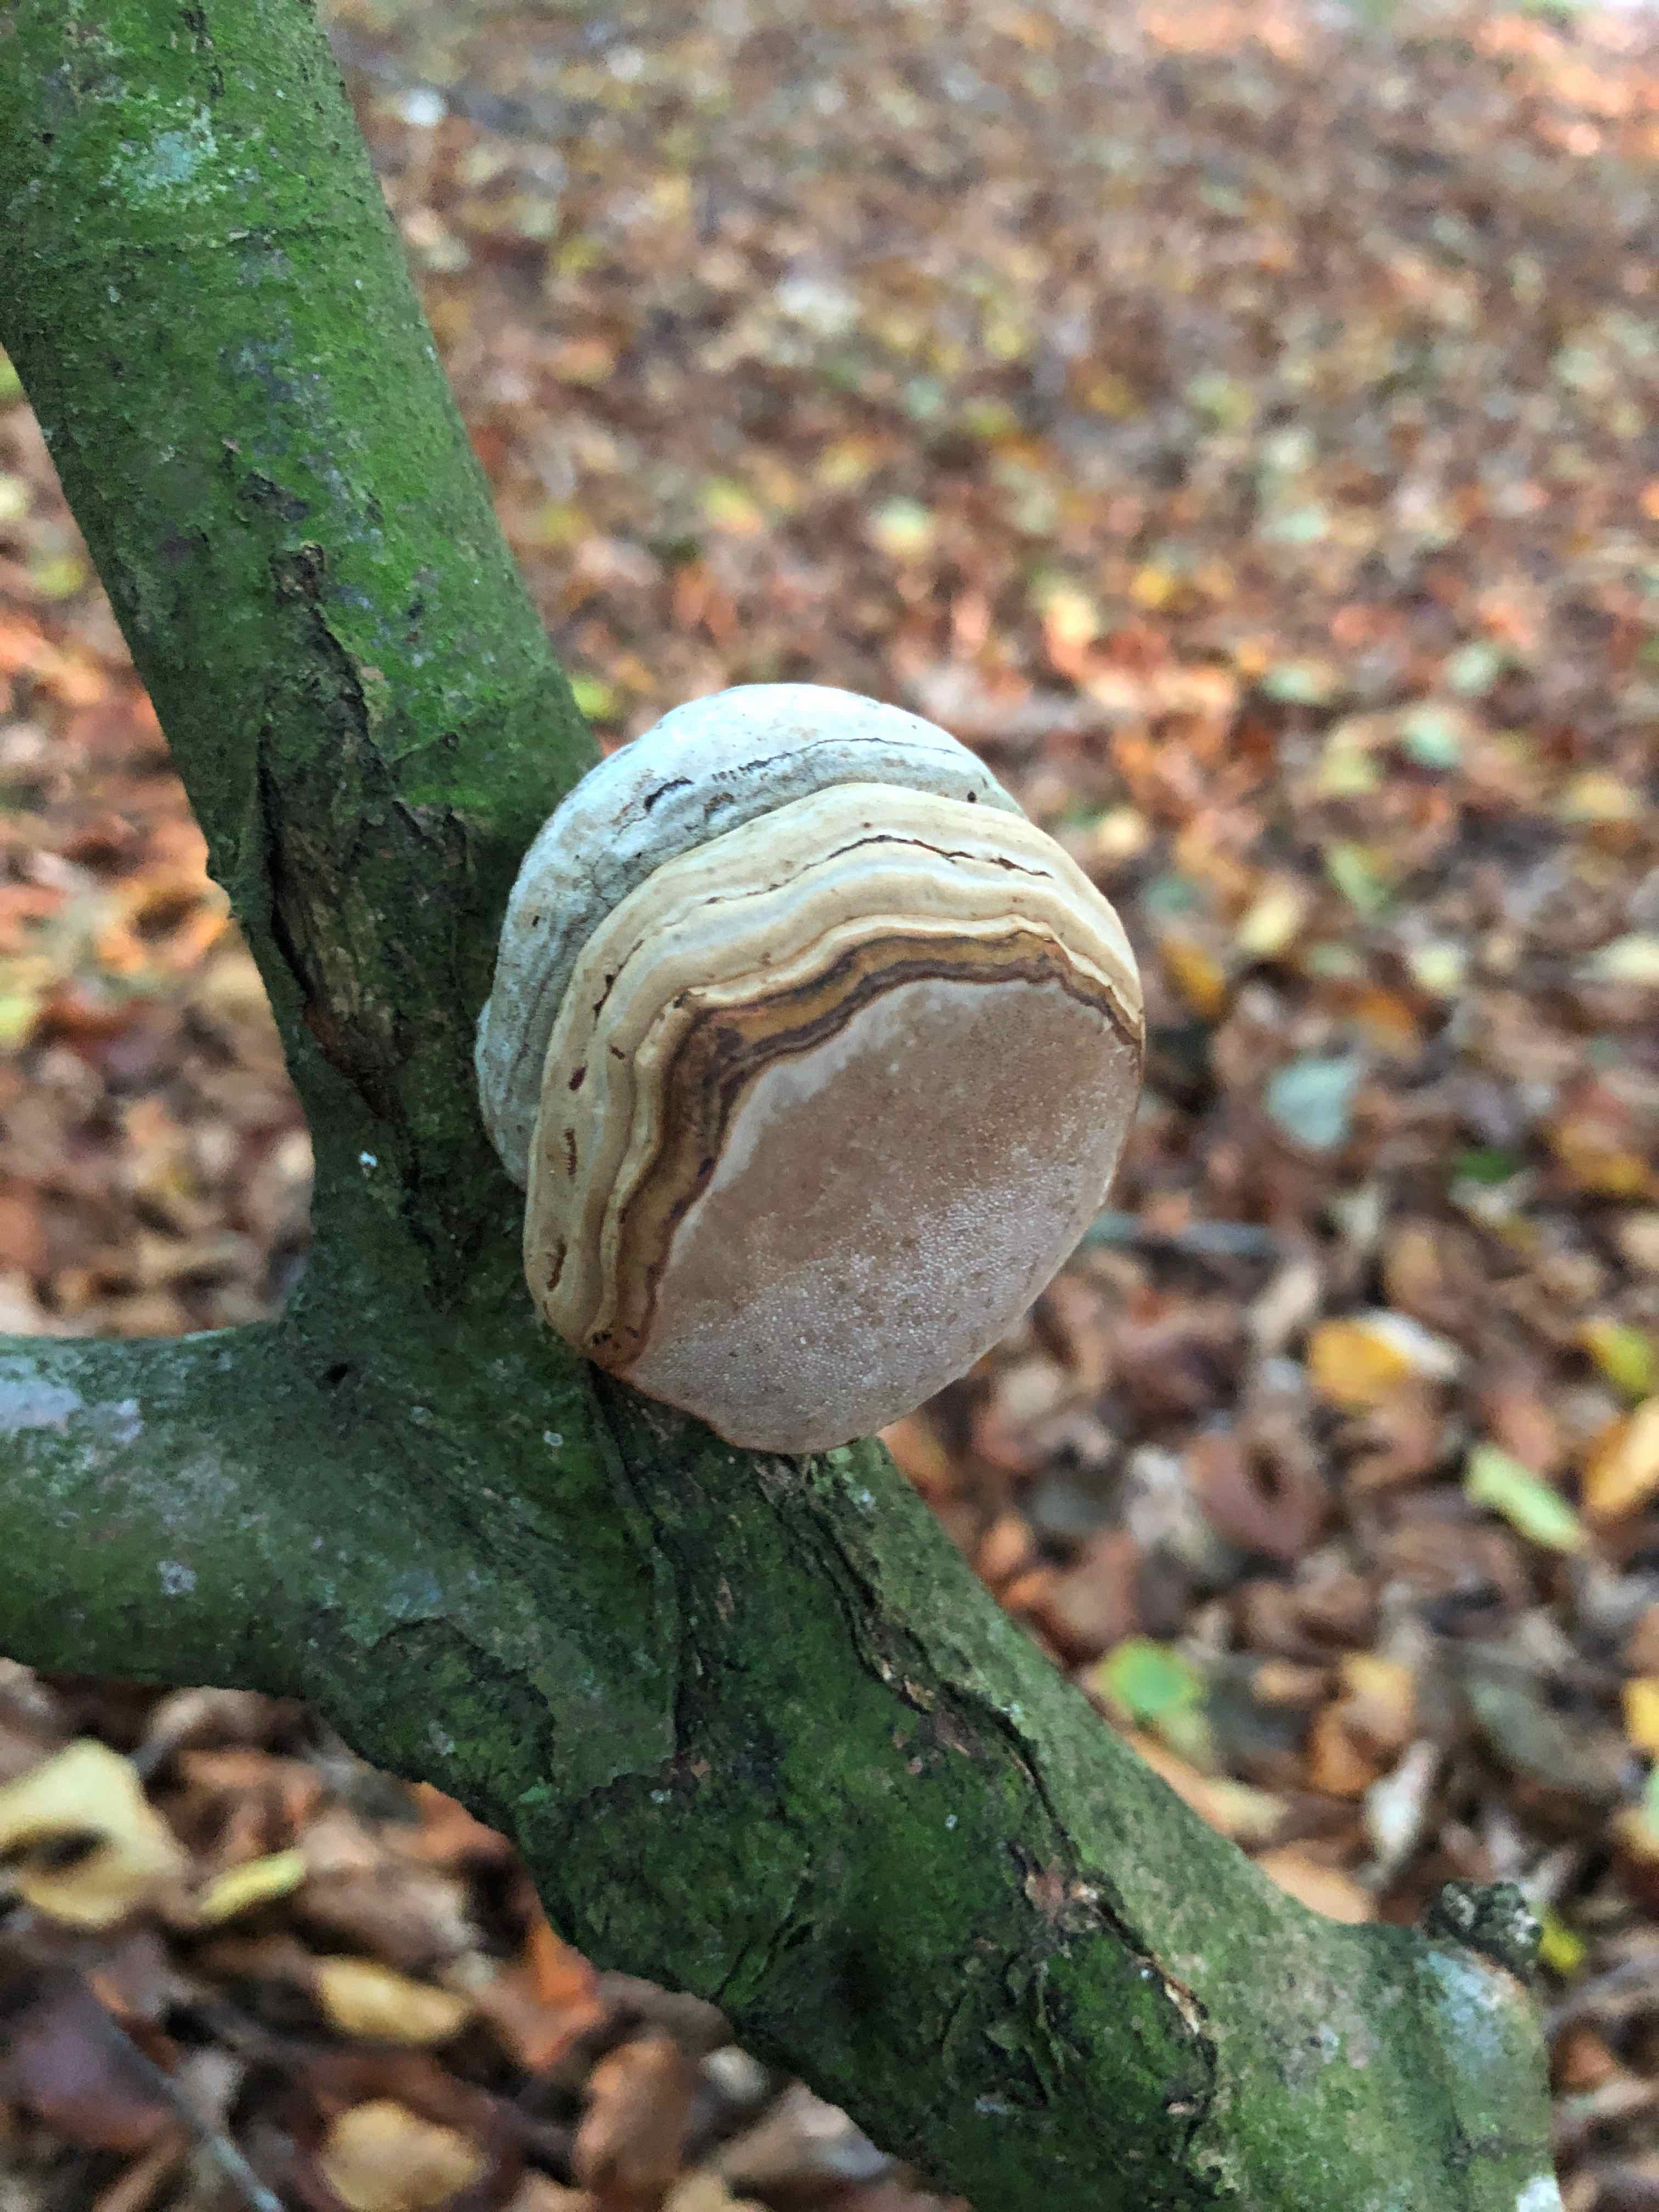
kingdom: Fungi
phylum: Basidiomycota
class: Agaricomycetes
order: Polyporales
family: Polyporaceae
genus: Fomes
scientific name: Fomes fomentarius
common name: tøndersvamp
